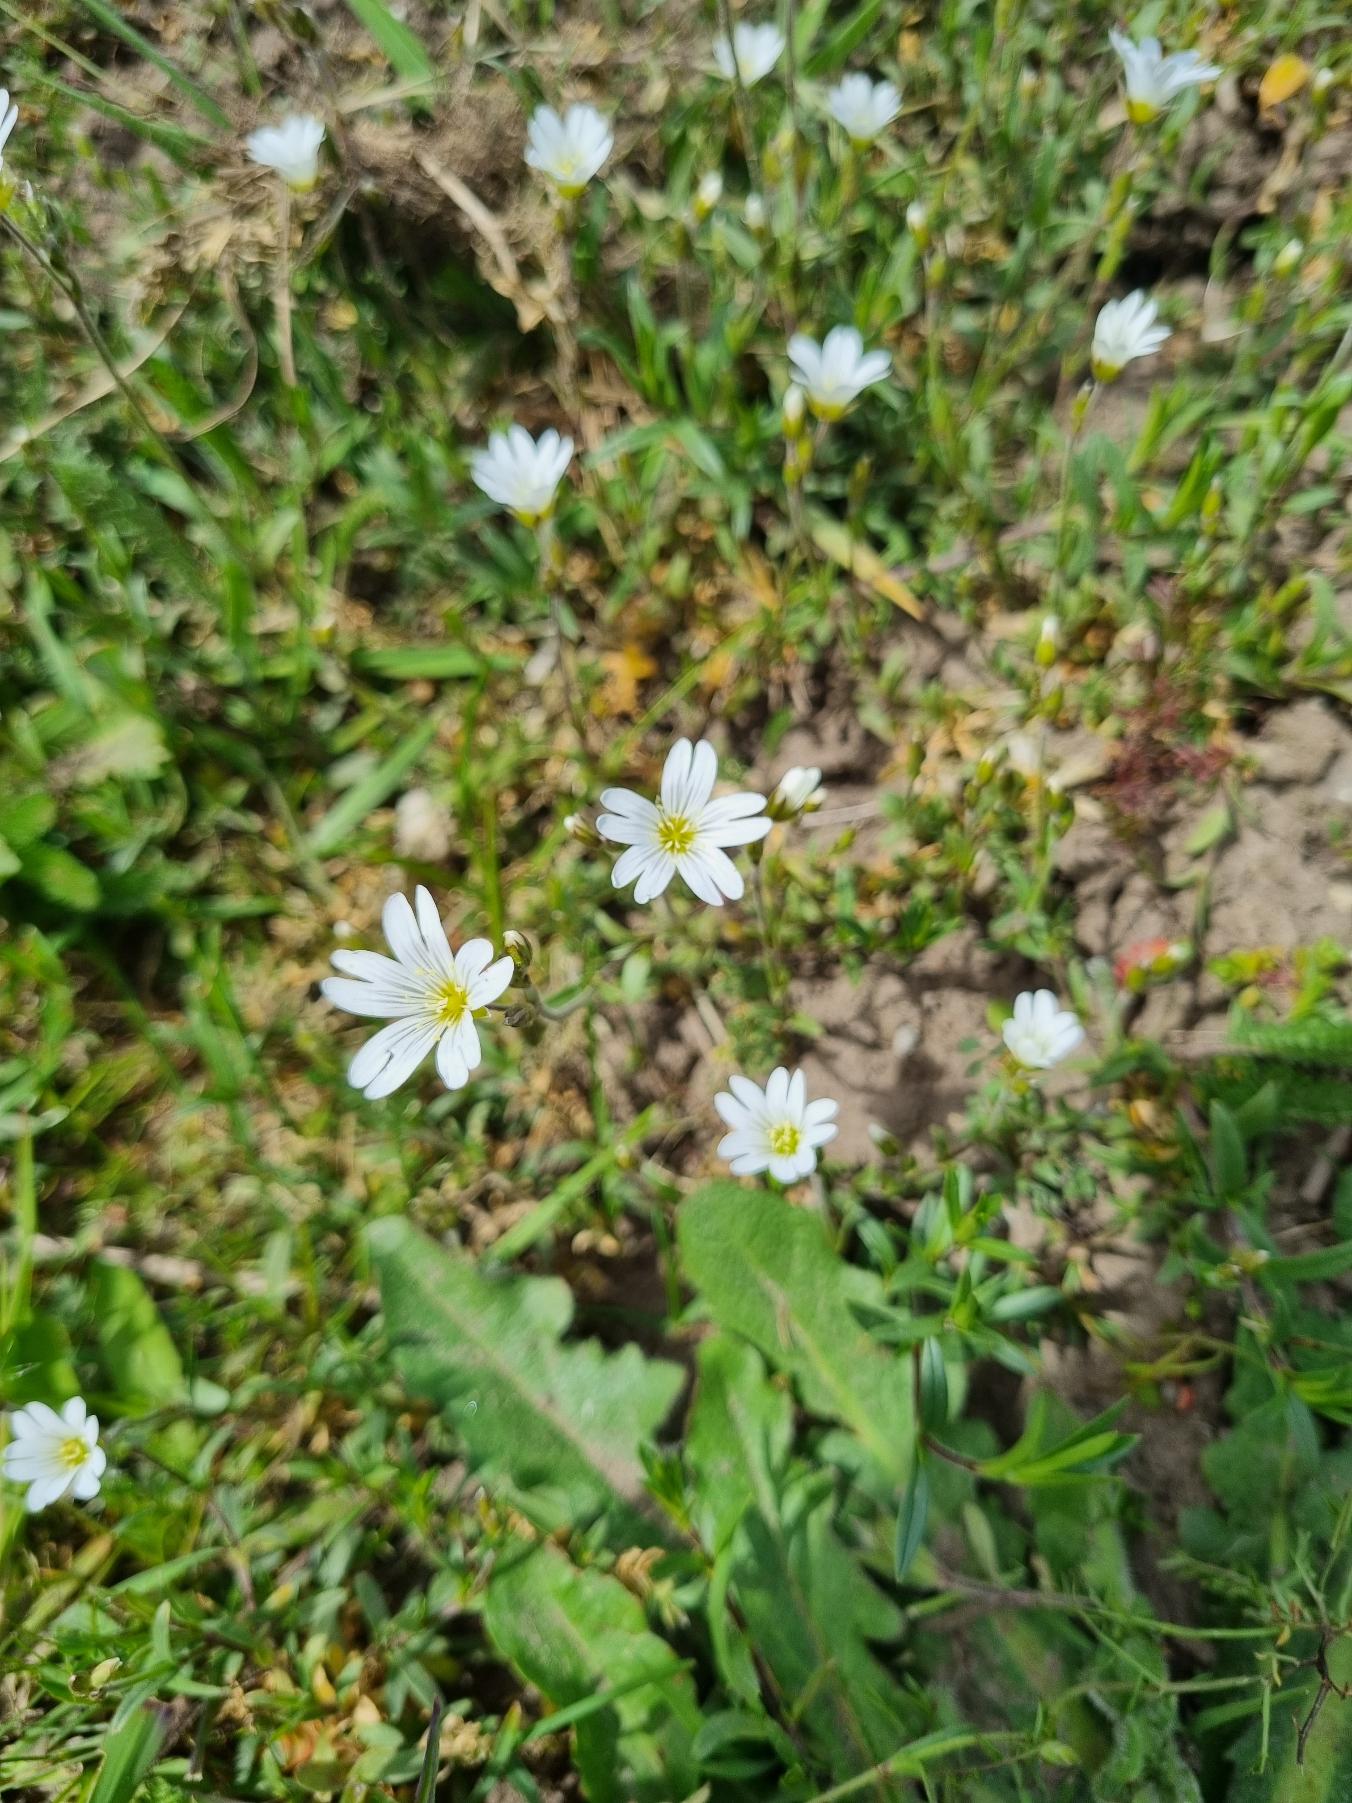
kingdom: Plantae
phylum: Tracheophyta
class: Magnoliopsida
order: Caryophyllales
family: Caryophyllaceae
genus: Cerastium
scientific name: Cerastium arvense
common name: Storblomstret hønsetarm
